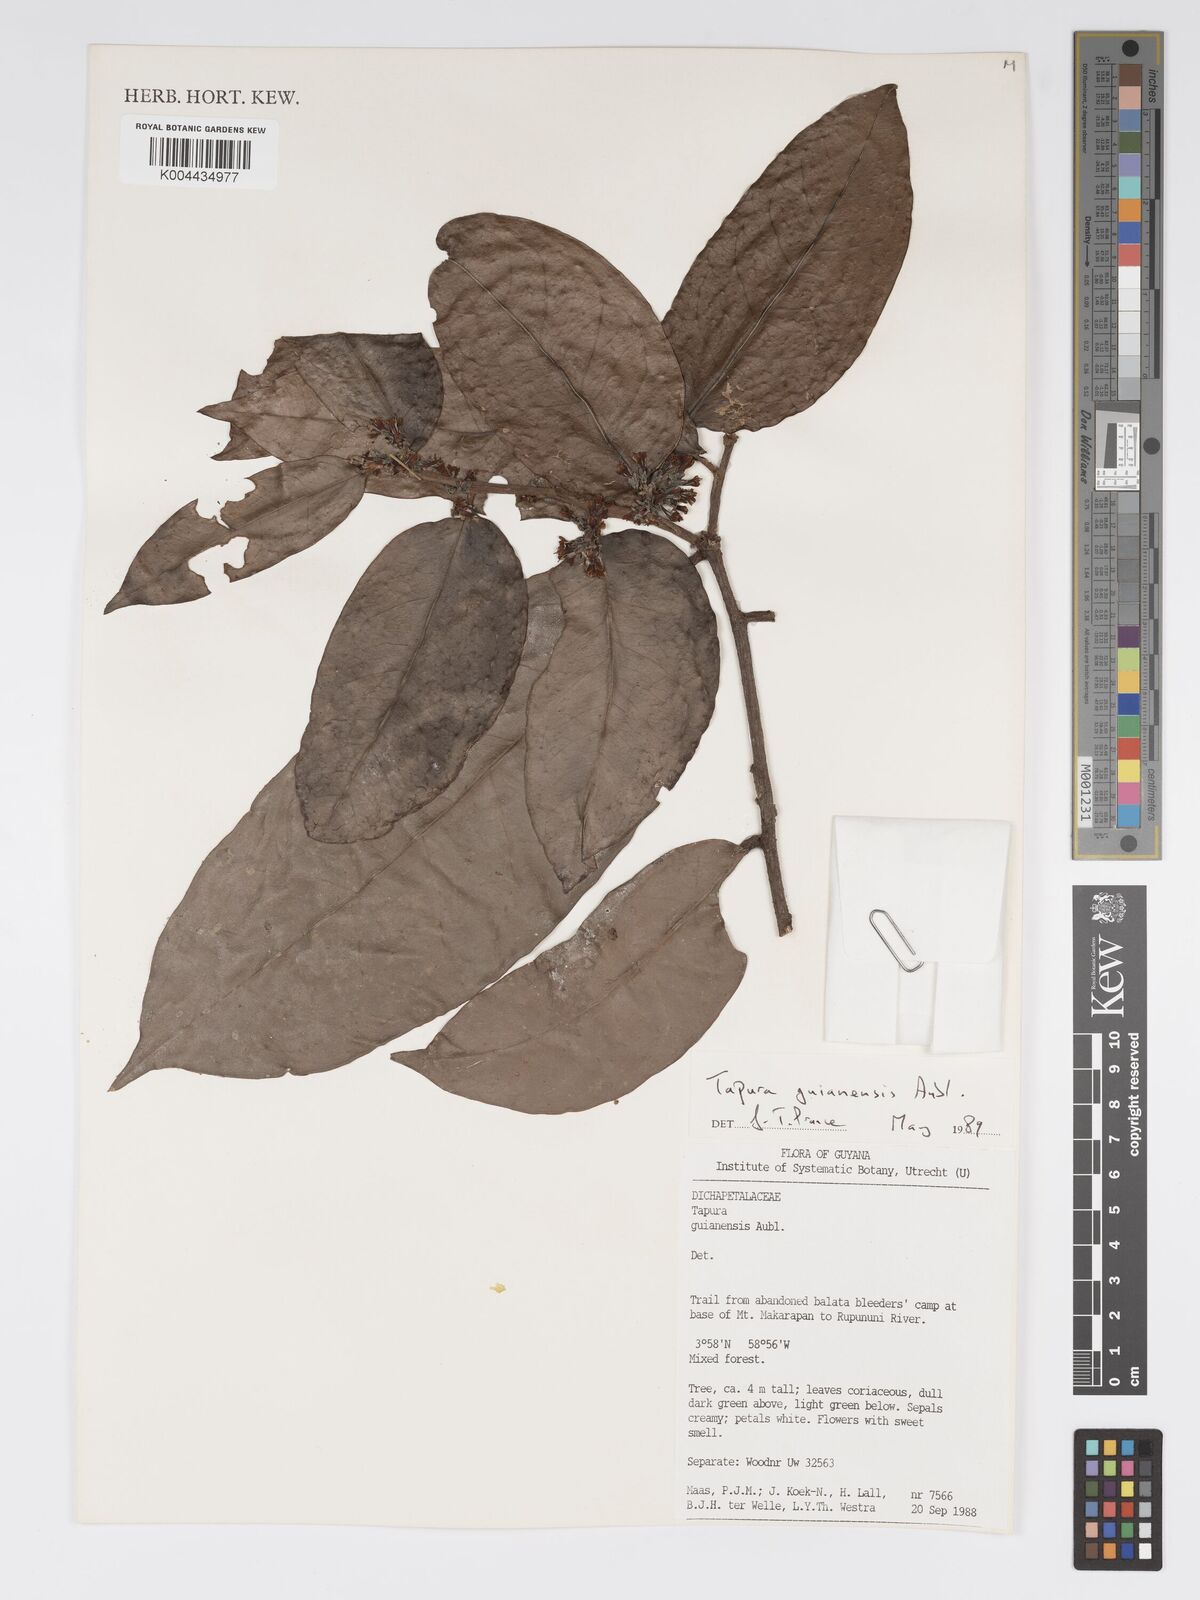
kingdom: Plantae
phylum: Tracheophyta
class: Magnoliopsida
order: Malpighiales
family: Dichapetalaceae
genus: Tapura
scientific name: Tapura guianensis
